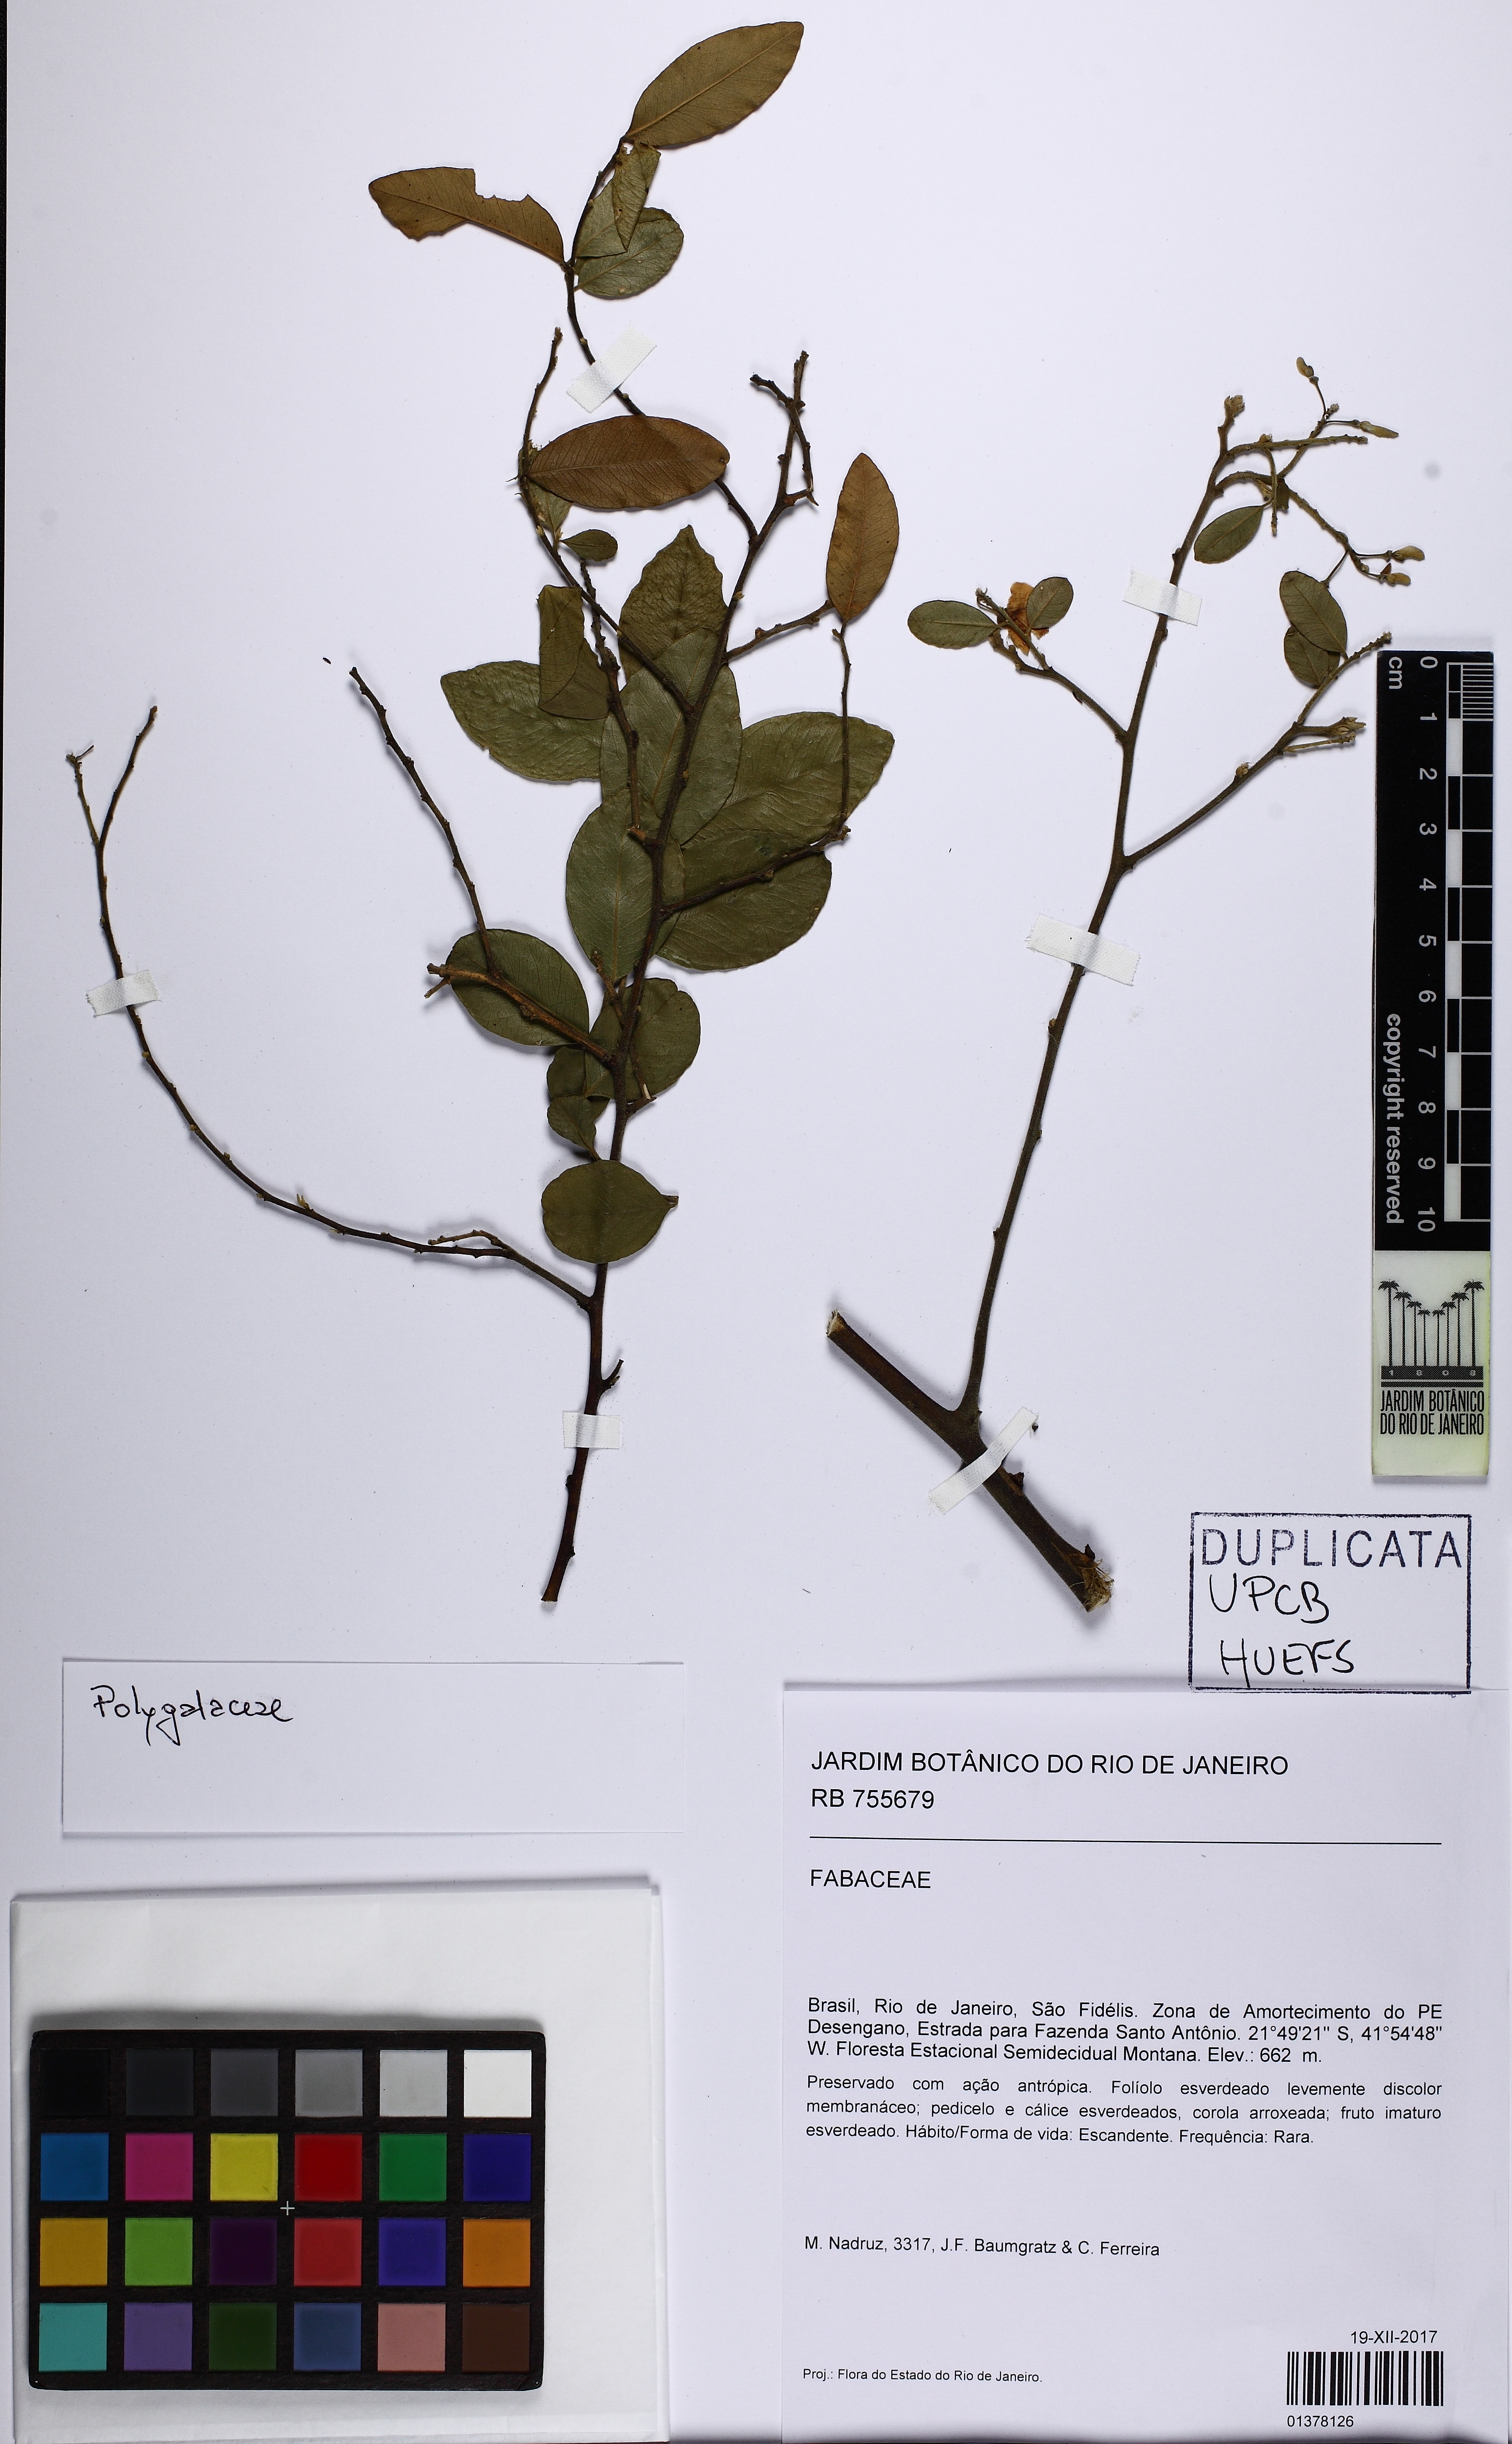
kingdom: Plantae
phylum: Tracheophyta
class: Magnoliopsida
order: Fabales
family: Polygalaceae
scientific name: Polygalaceae
